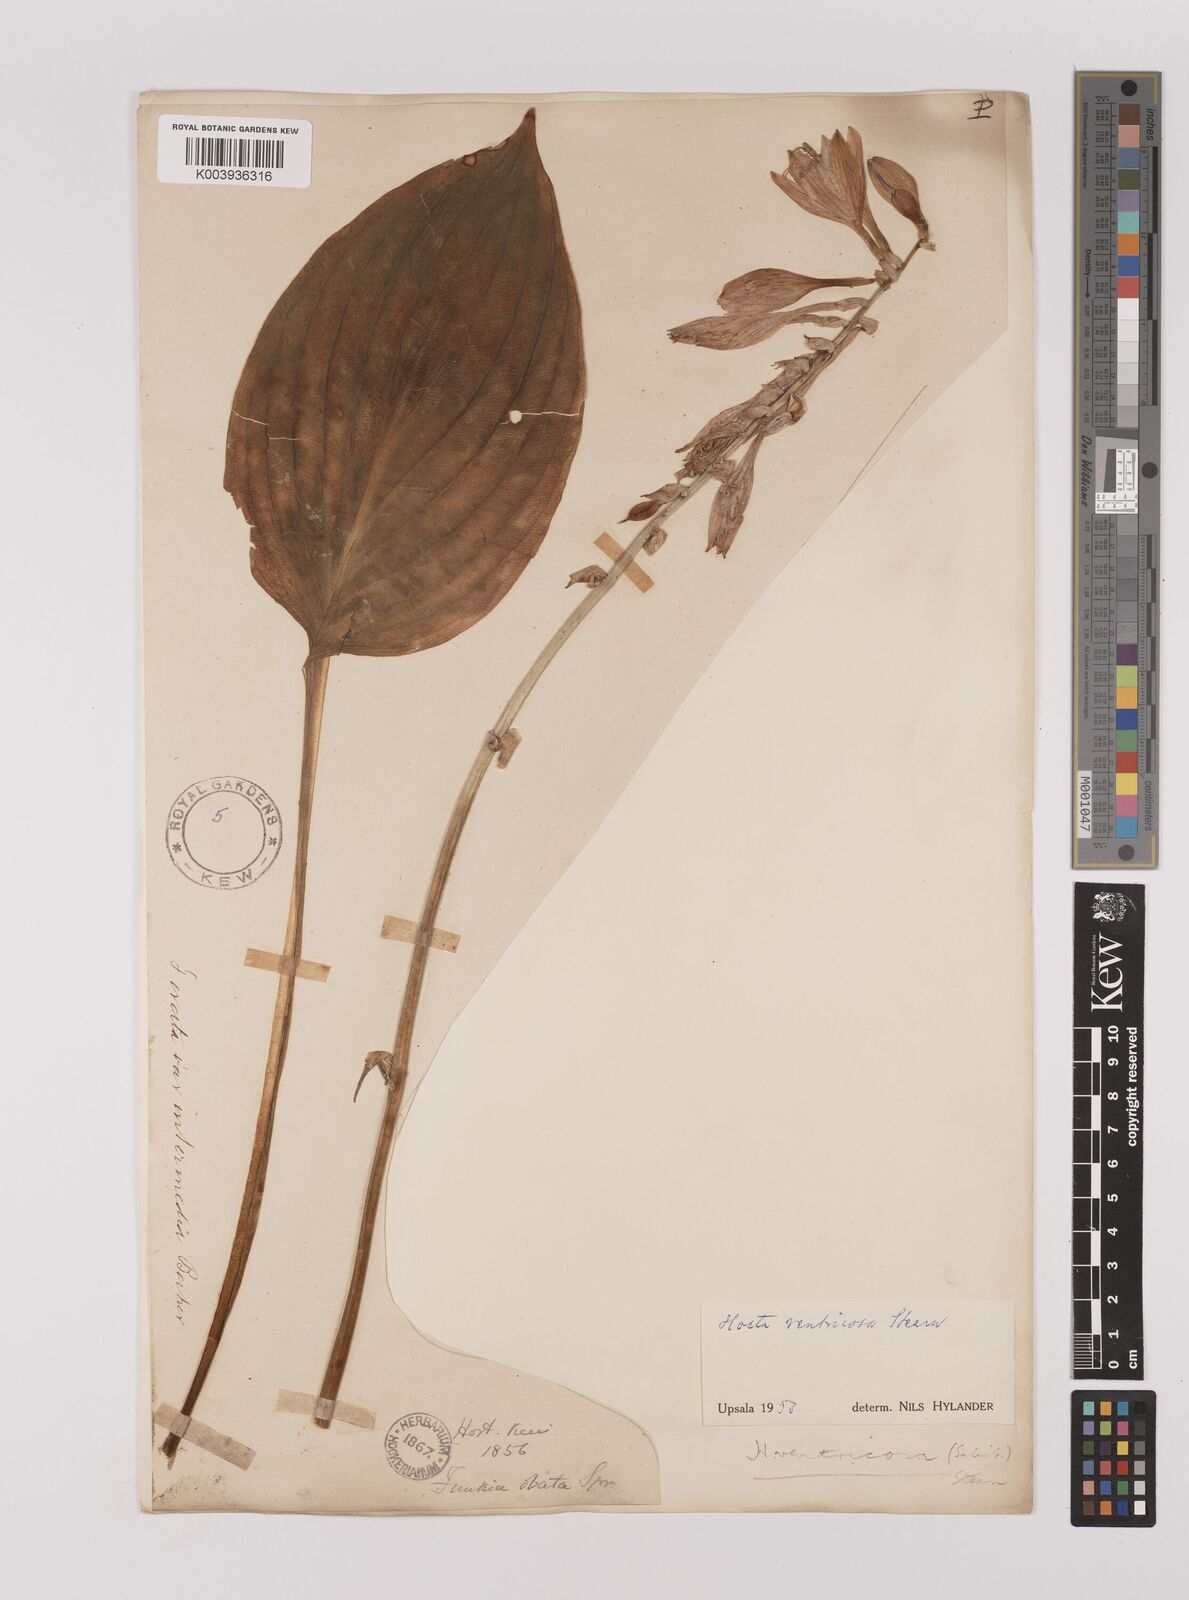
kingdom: Plantae
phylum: Tracheophyta
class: Liliopsida
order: Asparagales
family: Asparagaceae
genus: Hosta
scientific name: Hosta ventricosa
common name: Blue plantain-lily
